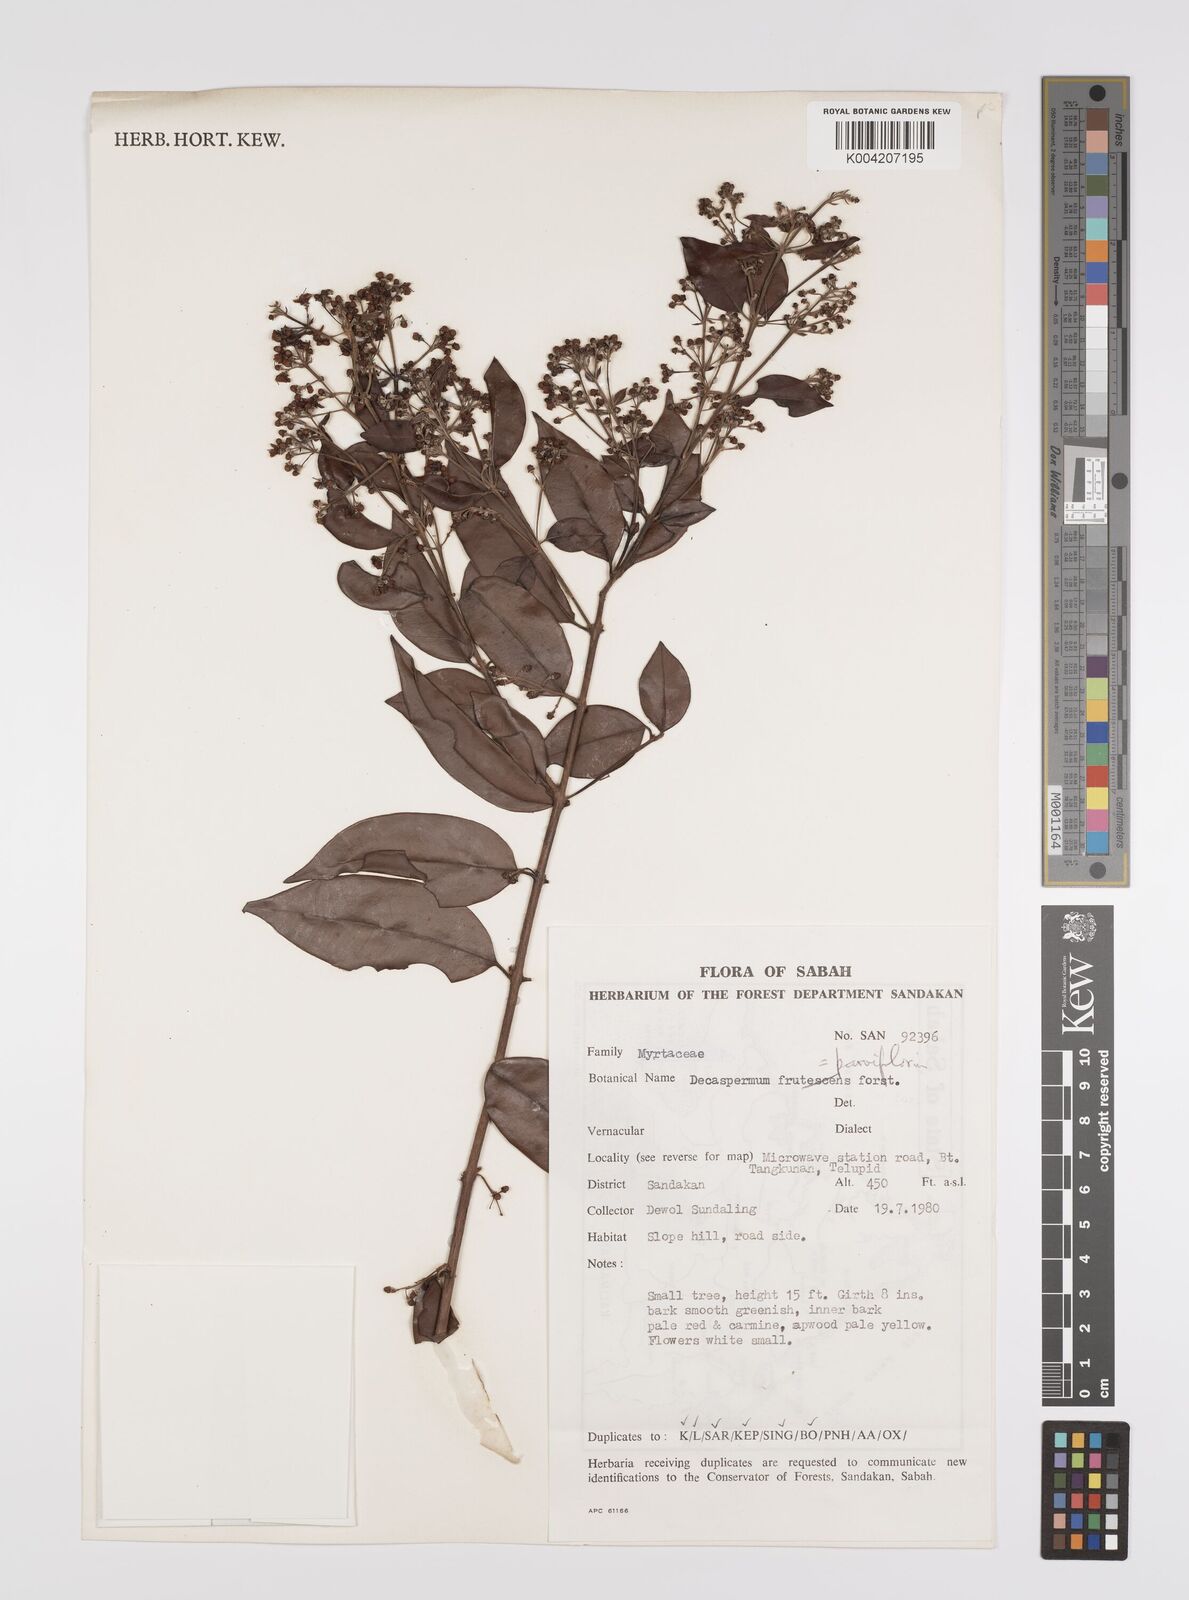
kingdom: Plantae
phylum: Tracheophyta
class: Magnoliopsida
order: Myrtales
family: Myrtaceae
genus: Decaspermum
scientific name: Decaspermum parviflorum
